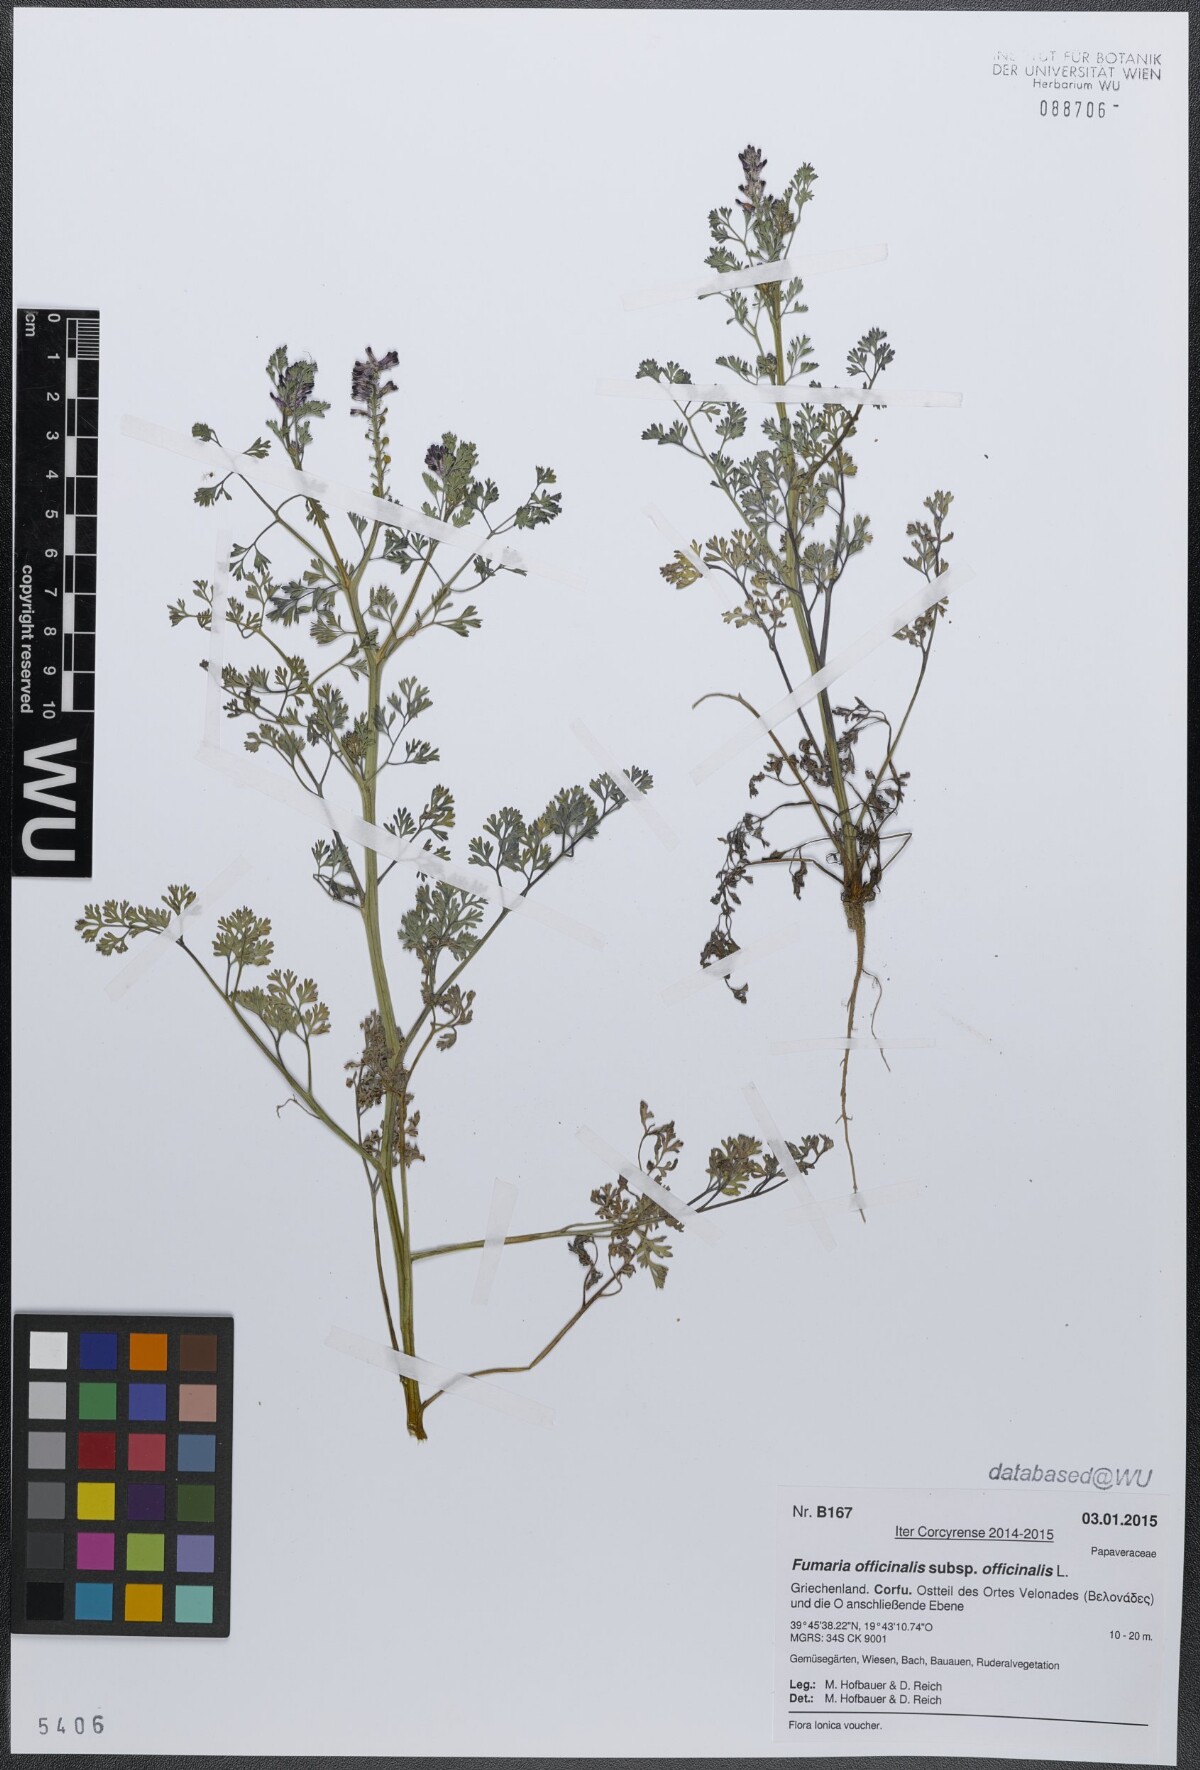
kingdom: Plantae
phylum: Tracheophyta
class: Magnoliopsida
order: Ranunculales
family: Papaveraceae
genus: Fumaria
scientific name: Fumaria officinalis
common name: Common fumitory
